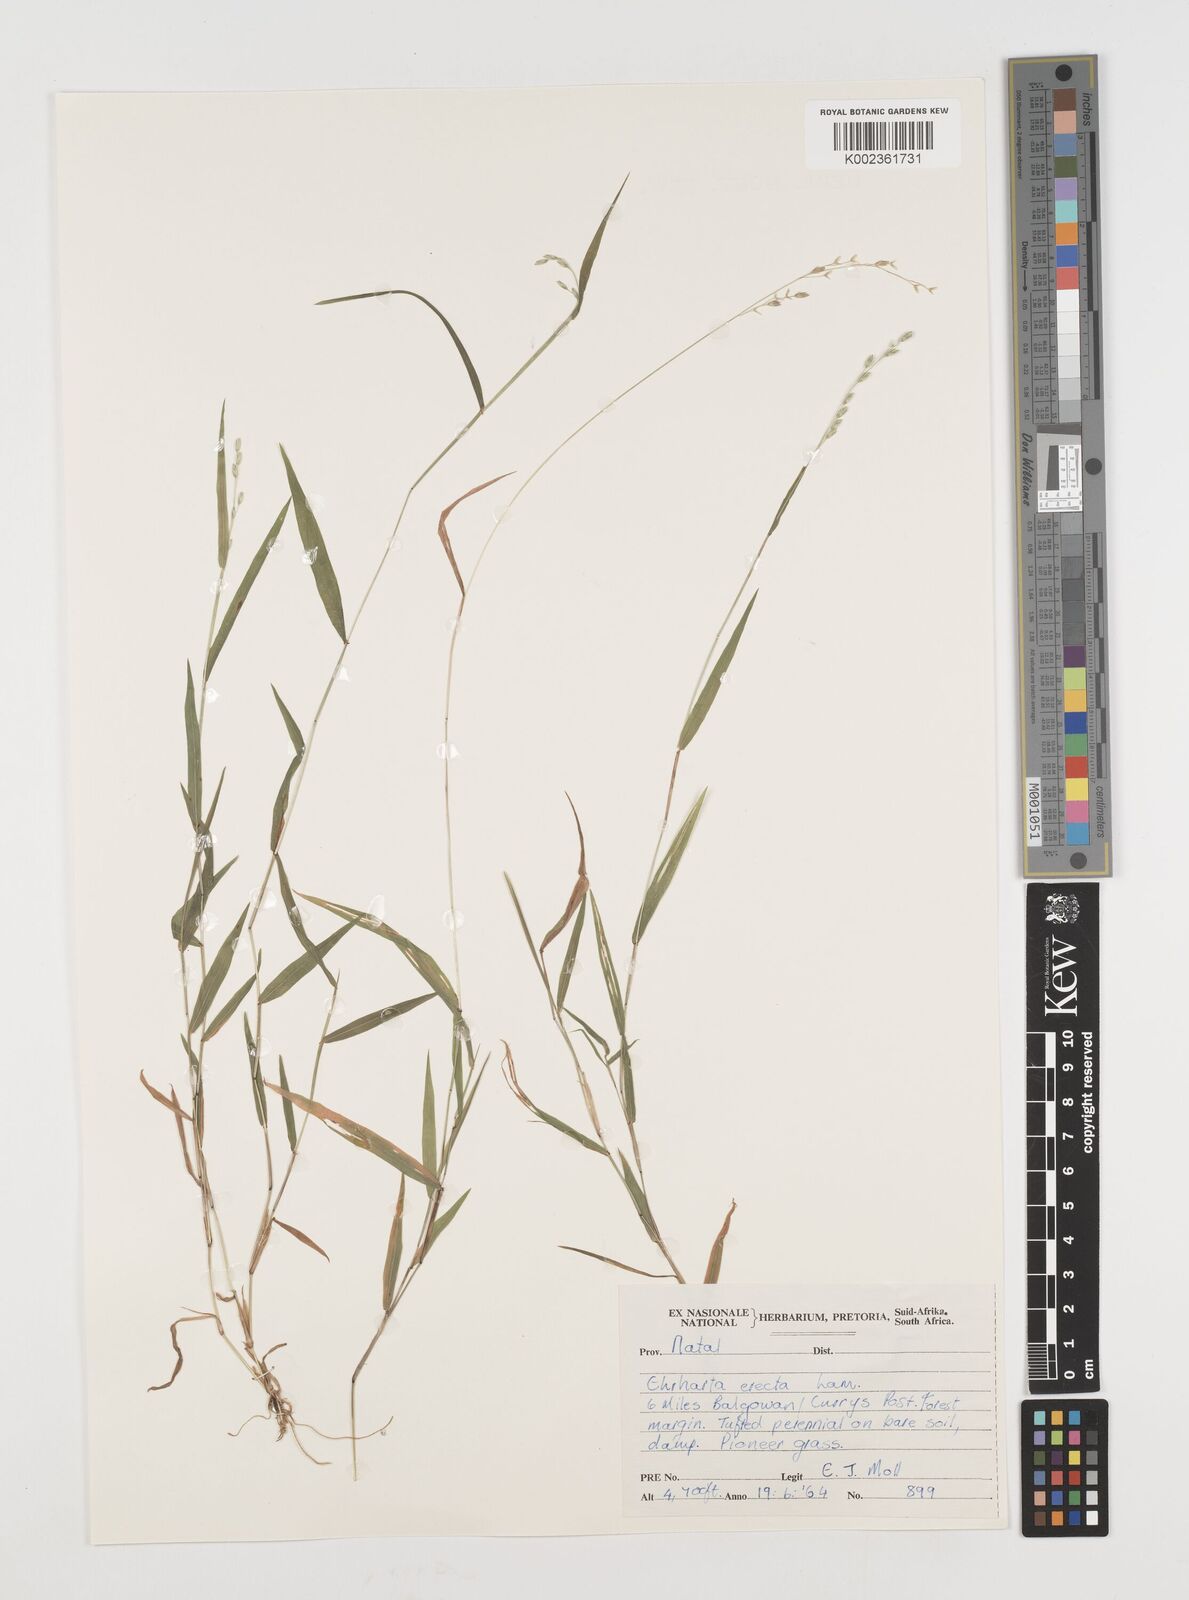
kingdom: Plantae
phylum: Tracheophyta
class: Liliopsida
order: Poales
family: Poaceae
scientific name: Poaceae
